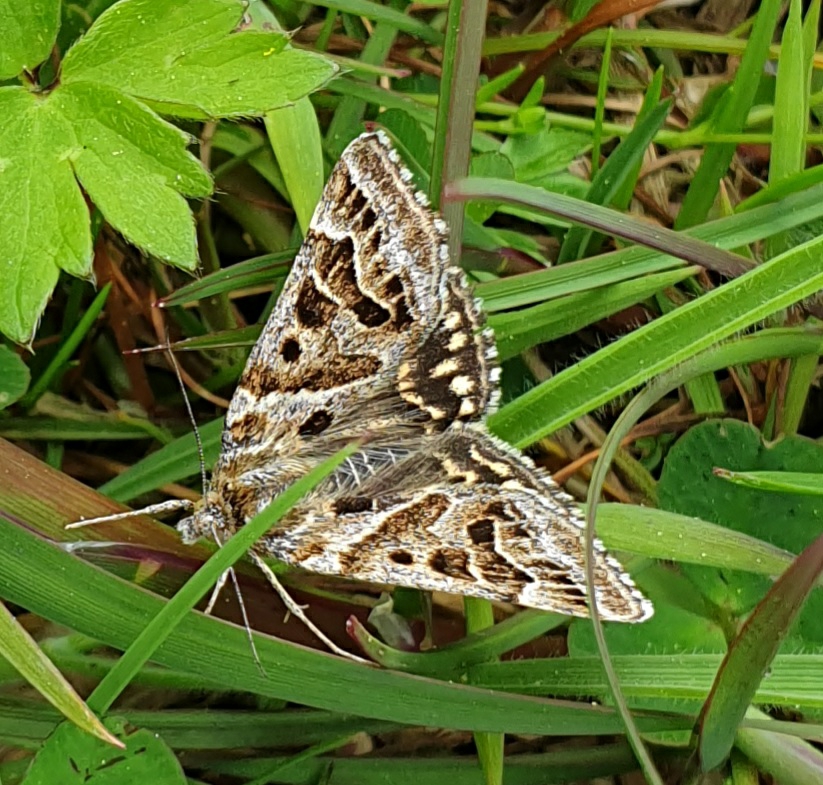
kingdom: Animalia
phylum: Arthropoda
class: Insecta
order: Lepidoptera
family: Erebidae
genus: Callistege
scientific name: Callistege mi
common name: Marmoreret kløverugle
